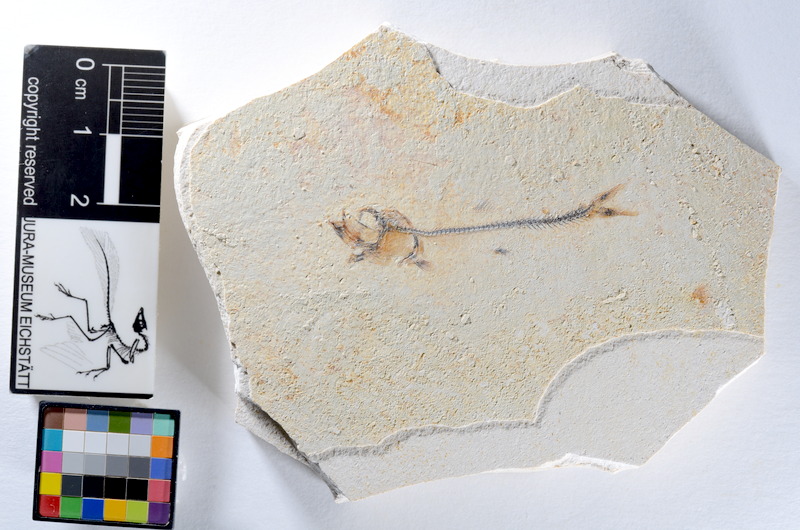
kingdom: Animalia
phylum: Chordata
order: Salmoniformes
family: Orthogonikleithridae
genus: Orthogonikleithrus
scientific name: Orthogonikleithrus hoelli
